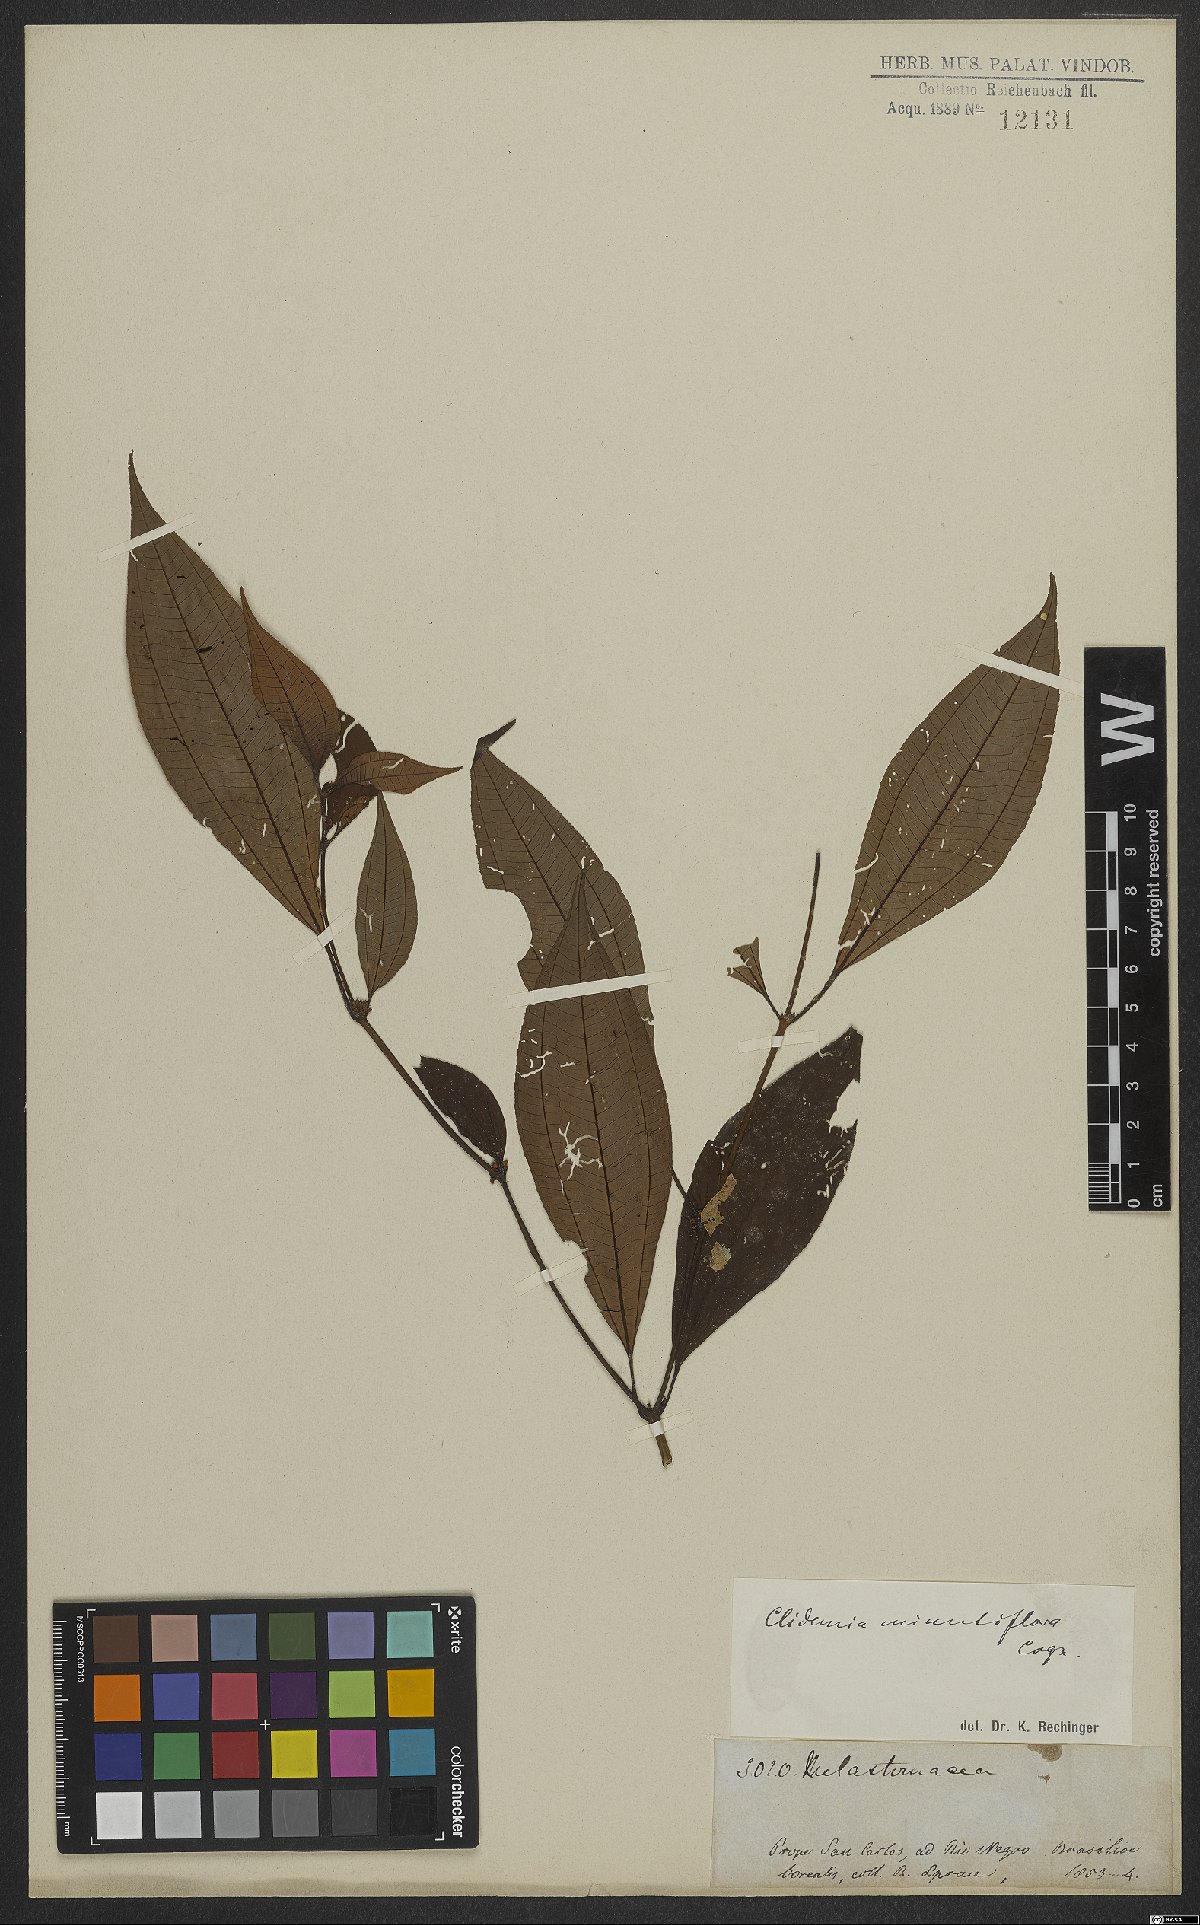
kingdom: Plantae
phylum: Tracheophyta
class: Magnoliopsida
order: Myrtales
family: Melastomataceae
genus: Miconia
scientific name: Miconia minutiflora
